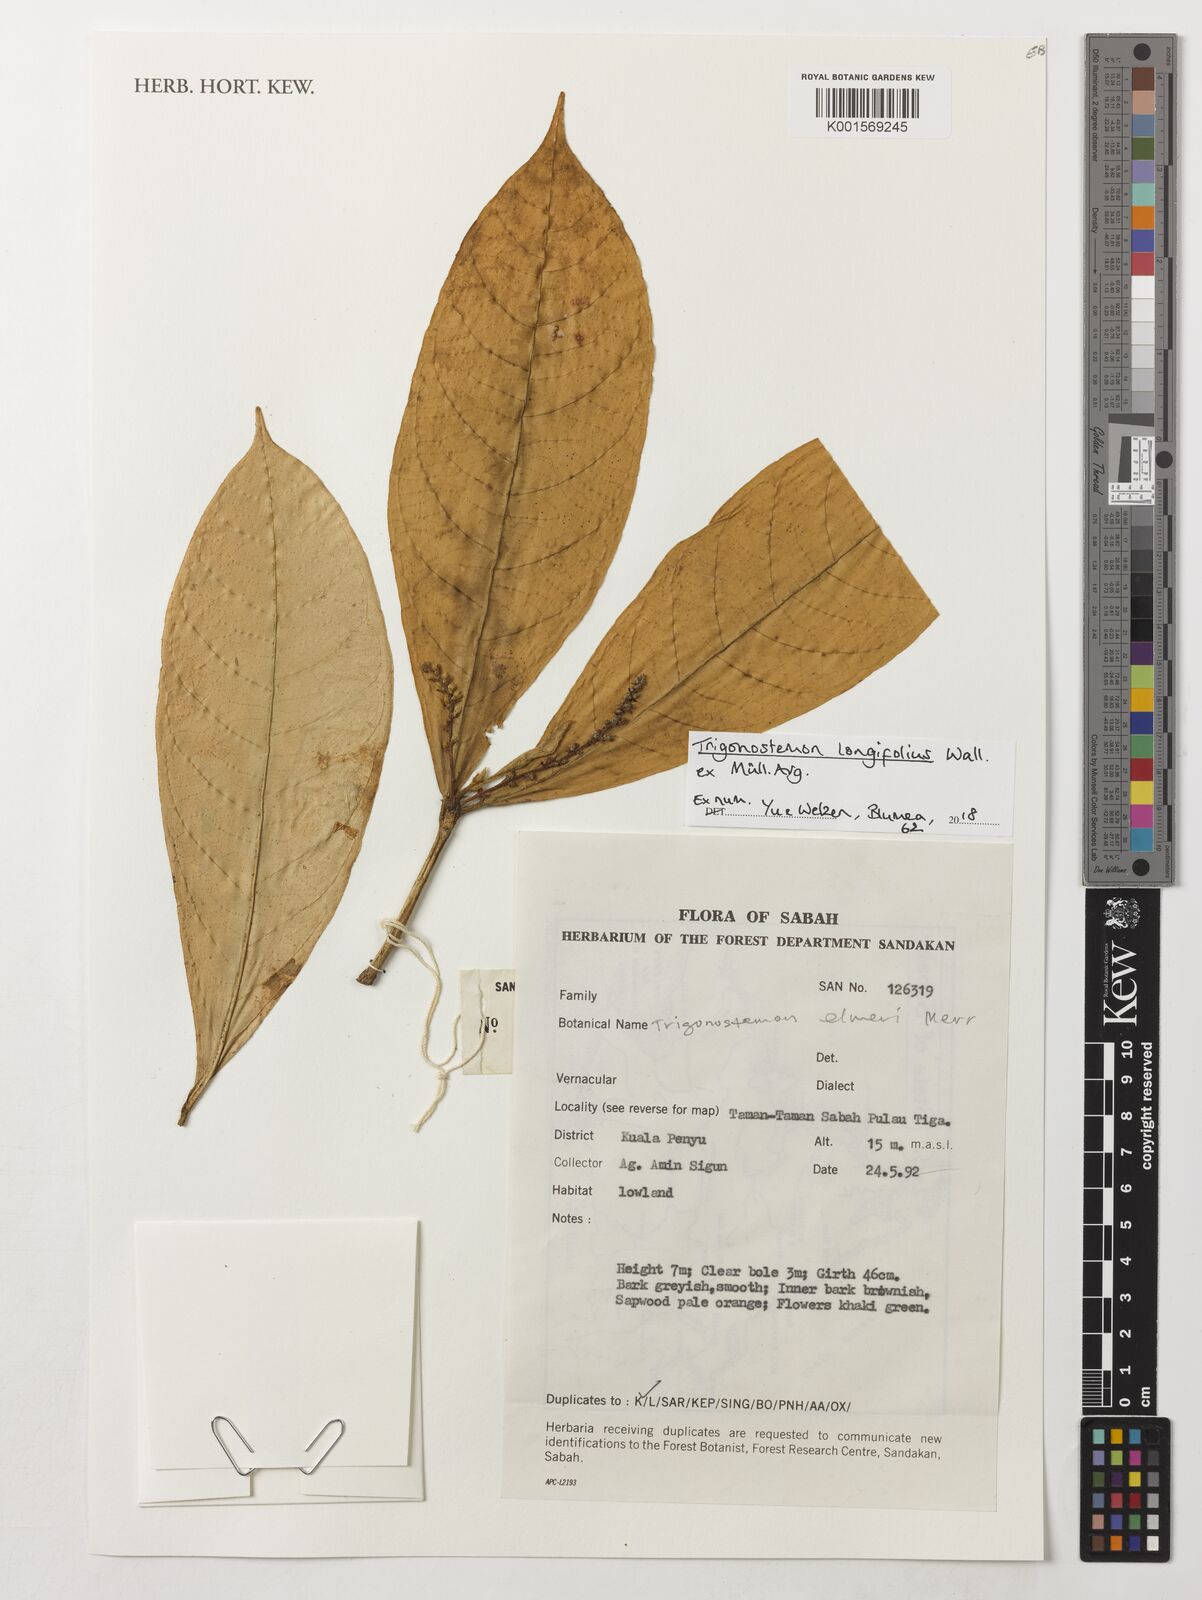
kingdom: Plantae
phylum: Tracheophyta
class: Magnoliopsida
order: Malpighiales
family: Euphorbiaceae
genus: Trigonostemon
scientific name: Trigonostemon longifolius
